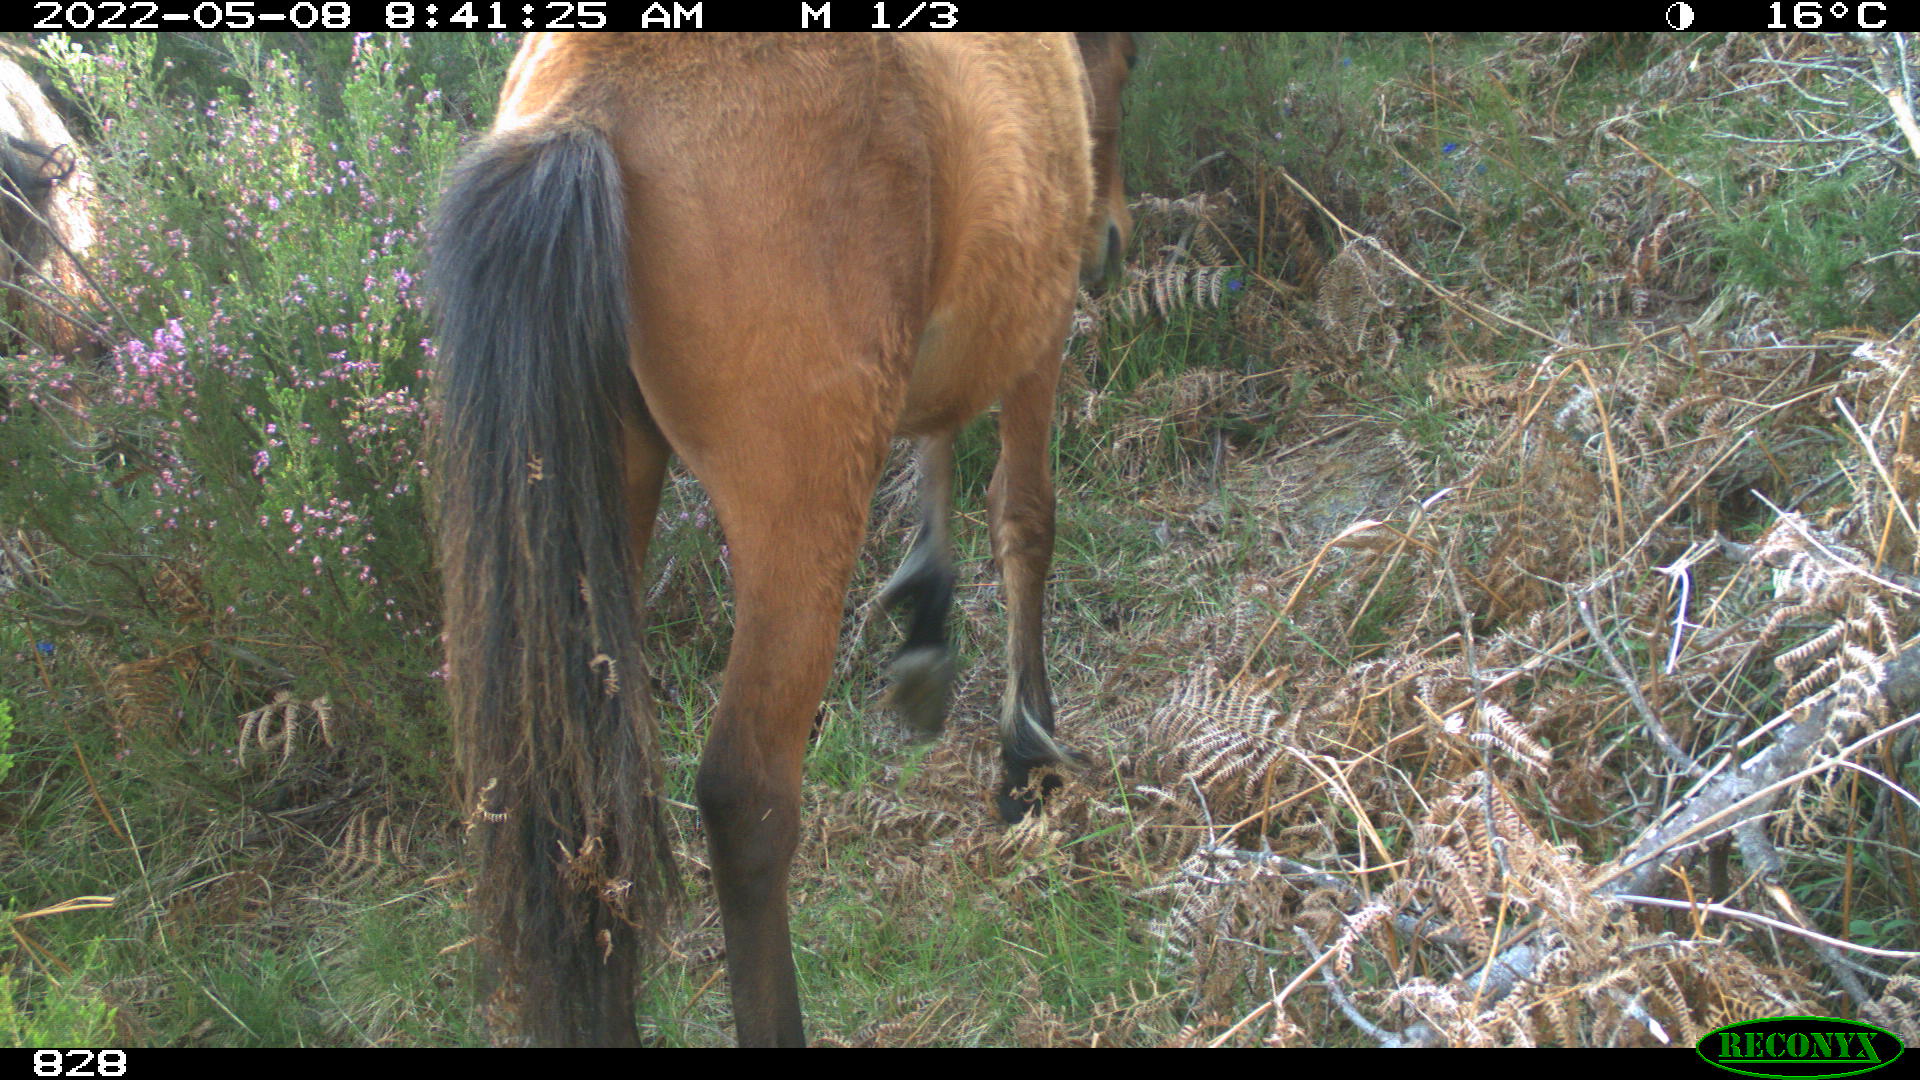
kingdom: Animalia
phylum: Chordata
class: Mammalia
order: Perissodactyla
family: Equidae
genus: Equus
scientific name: Equus caballus
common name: Horse
